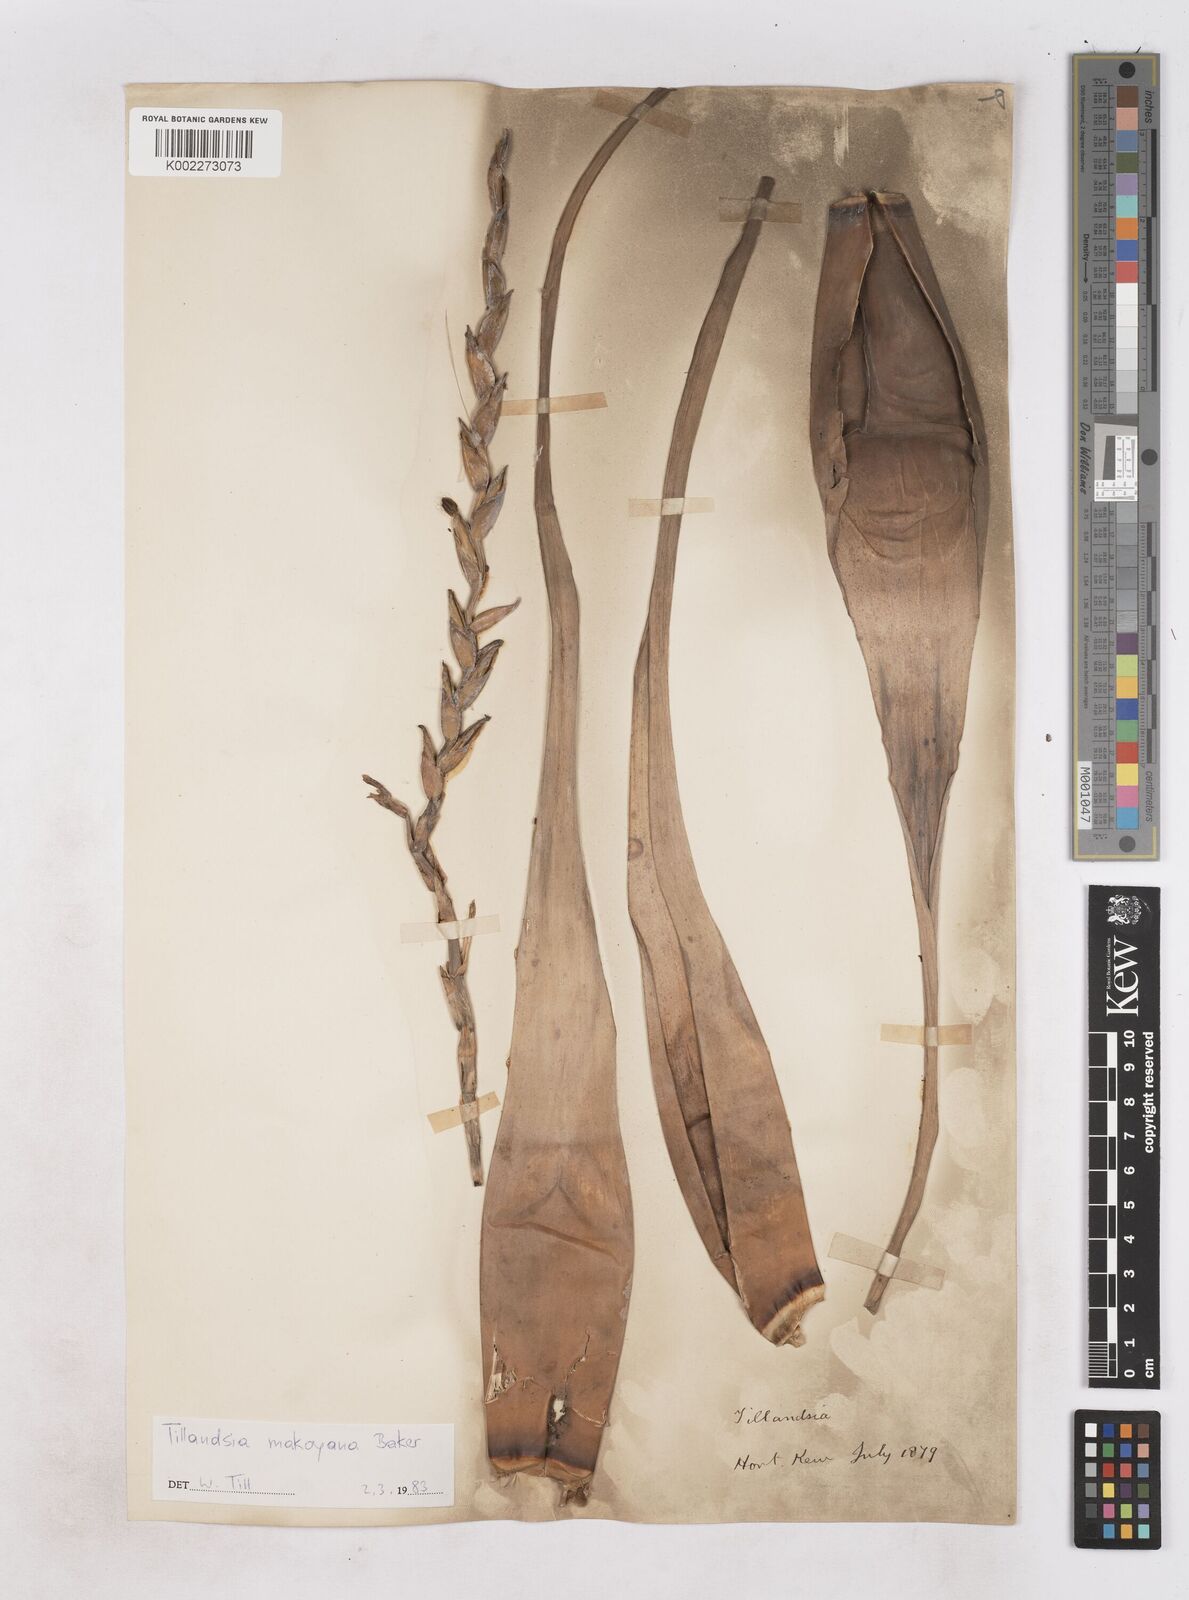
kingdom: Plantae
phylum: Tracheophyta
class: Liliopsida
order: Poales
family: Bromeliaceae
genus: Tillandsia
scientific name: Tillandsia makoyana
